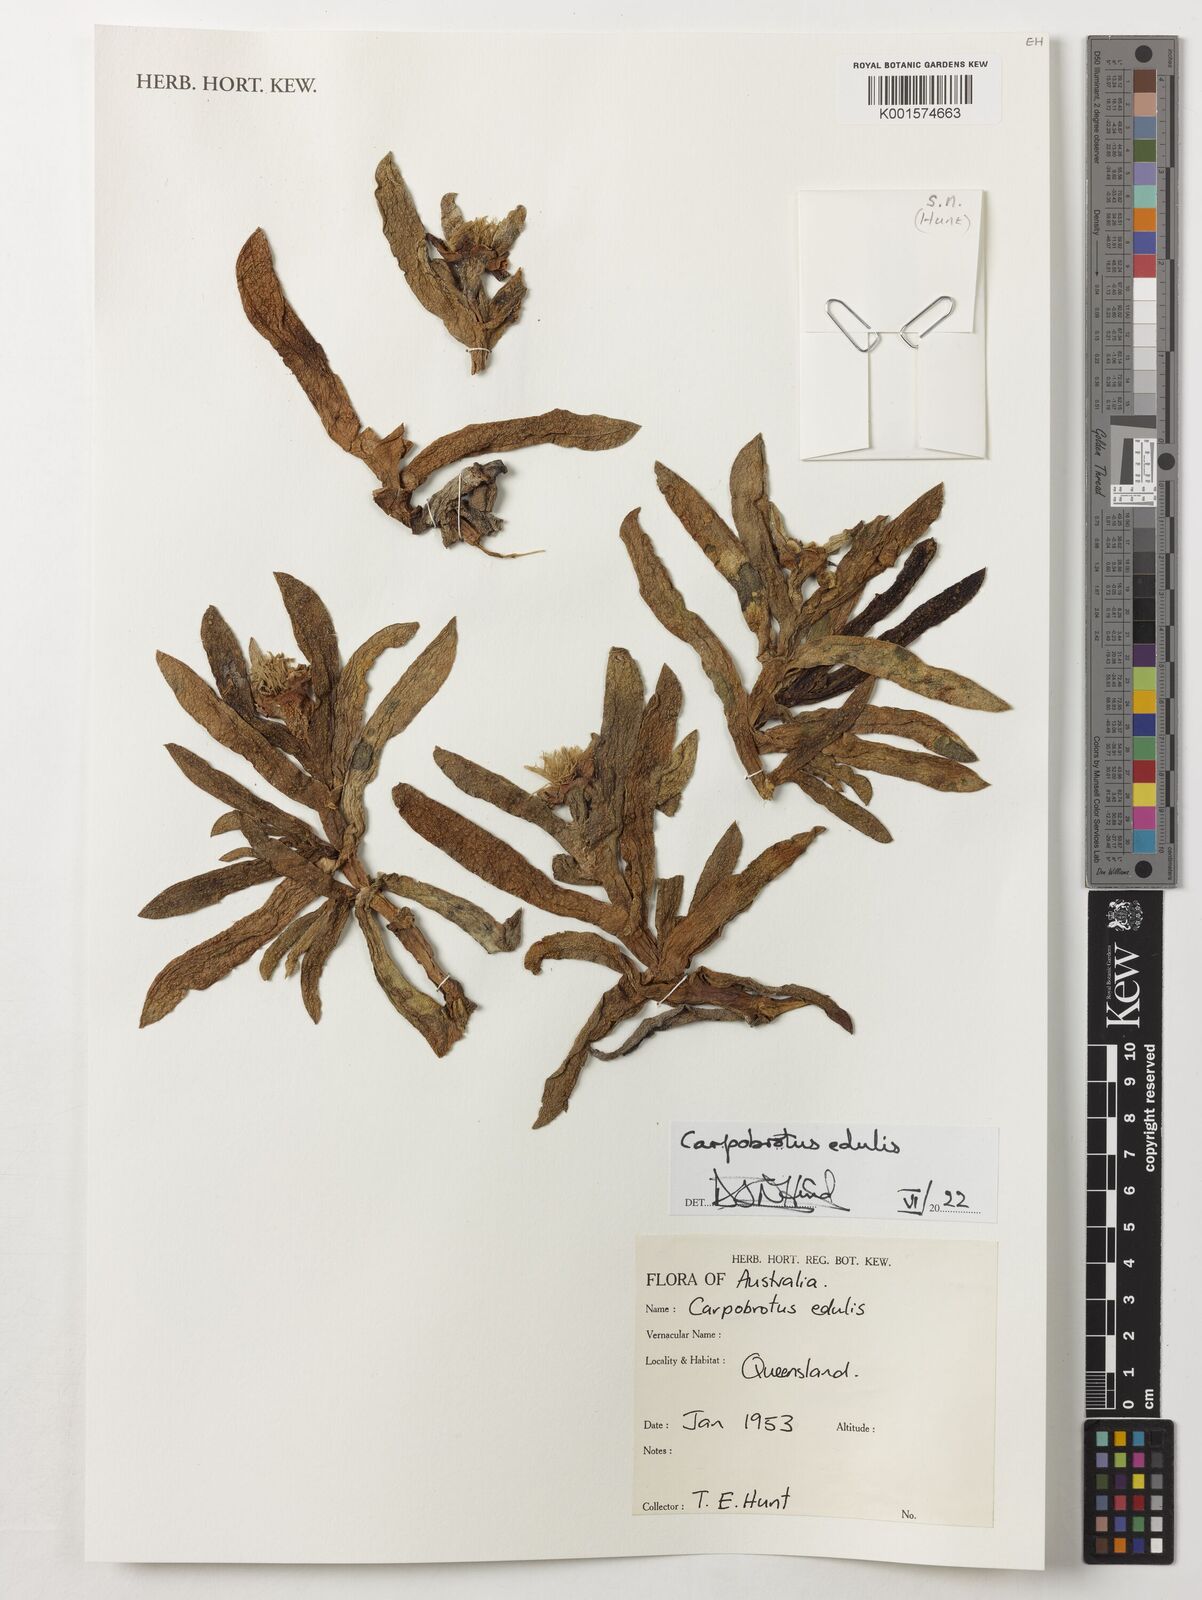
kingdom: Plantae
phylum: Tracheophyta
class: Magnoliopsida
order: Caryophyllales
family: Aizoaceae
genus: Carpobrotus
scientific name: Carpobrotus edulis
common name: Hottentot-fig
